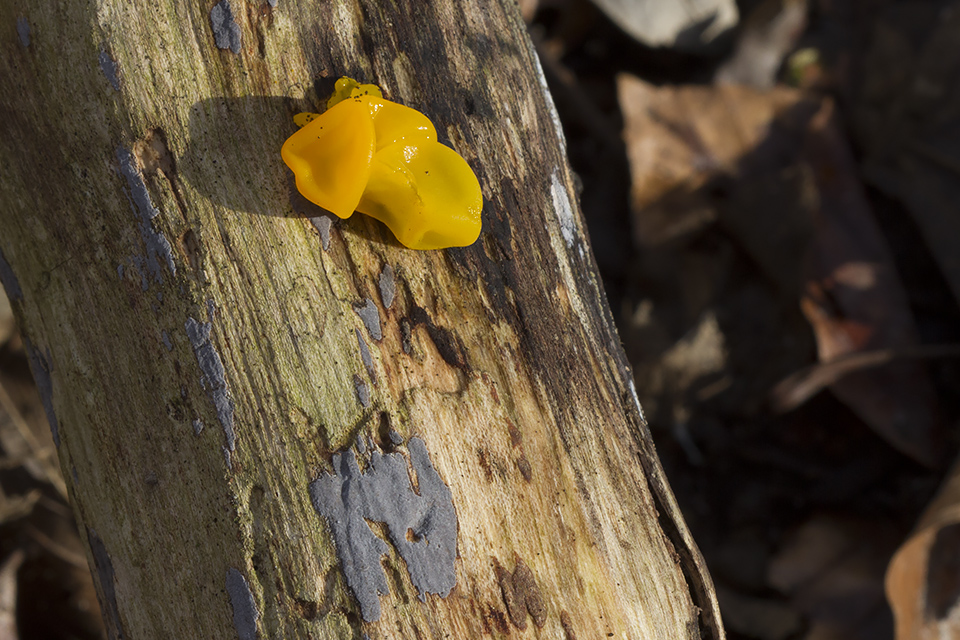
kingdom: Fungi
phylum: Basidiomycota
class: Agaricomycetes
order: Russulales
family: Peniophoraceae
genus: Peniophora
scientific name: Peniophora cinerea
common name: grå voksskind
